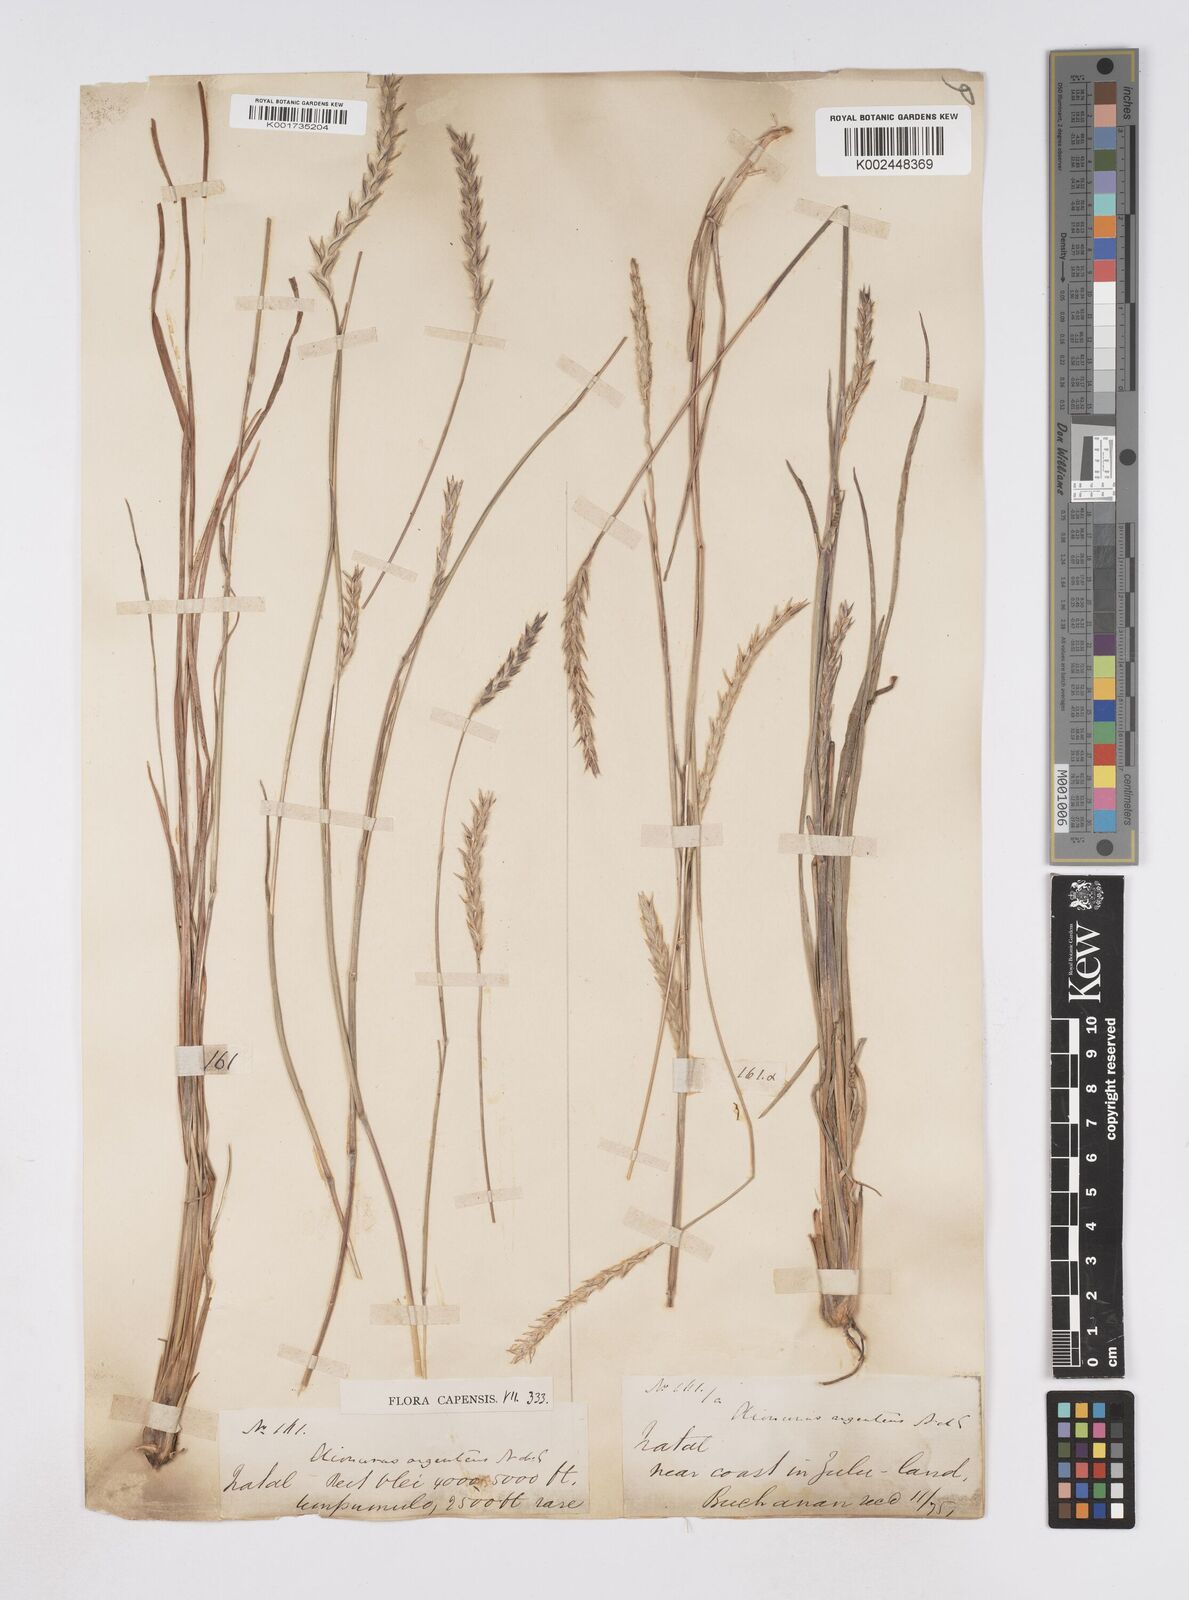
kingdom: Plantae
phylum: Tracheophyta
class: Liliopsida
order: Poales
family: Poaceae
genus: Elionurus
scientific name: Elionurus muticus
